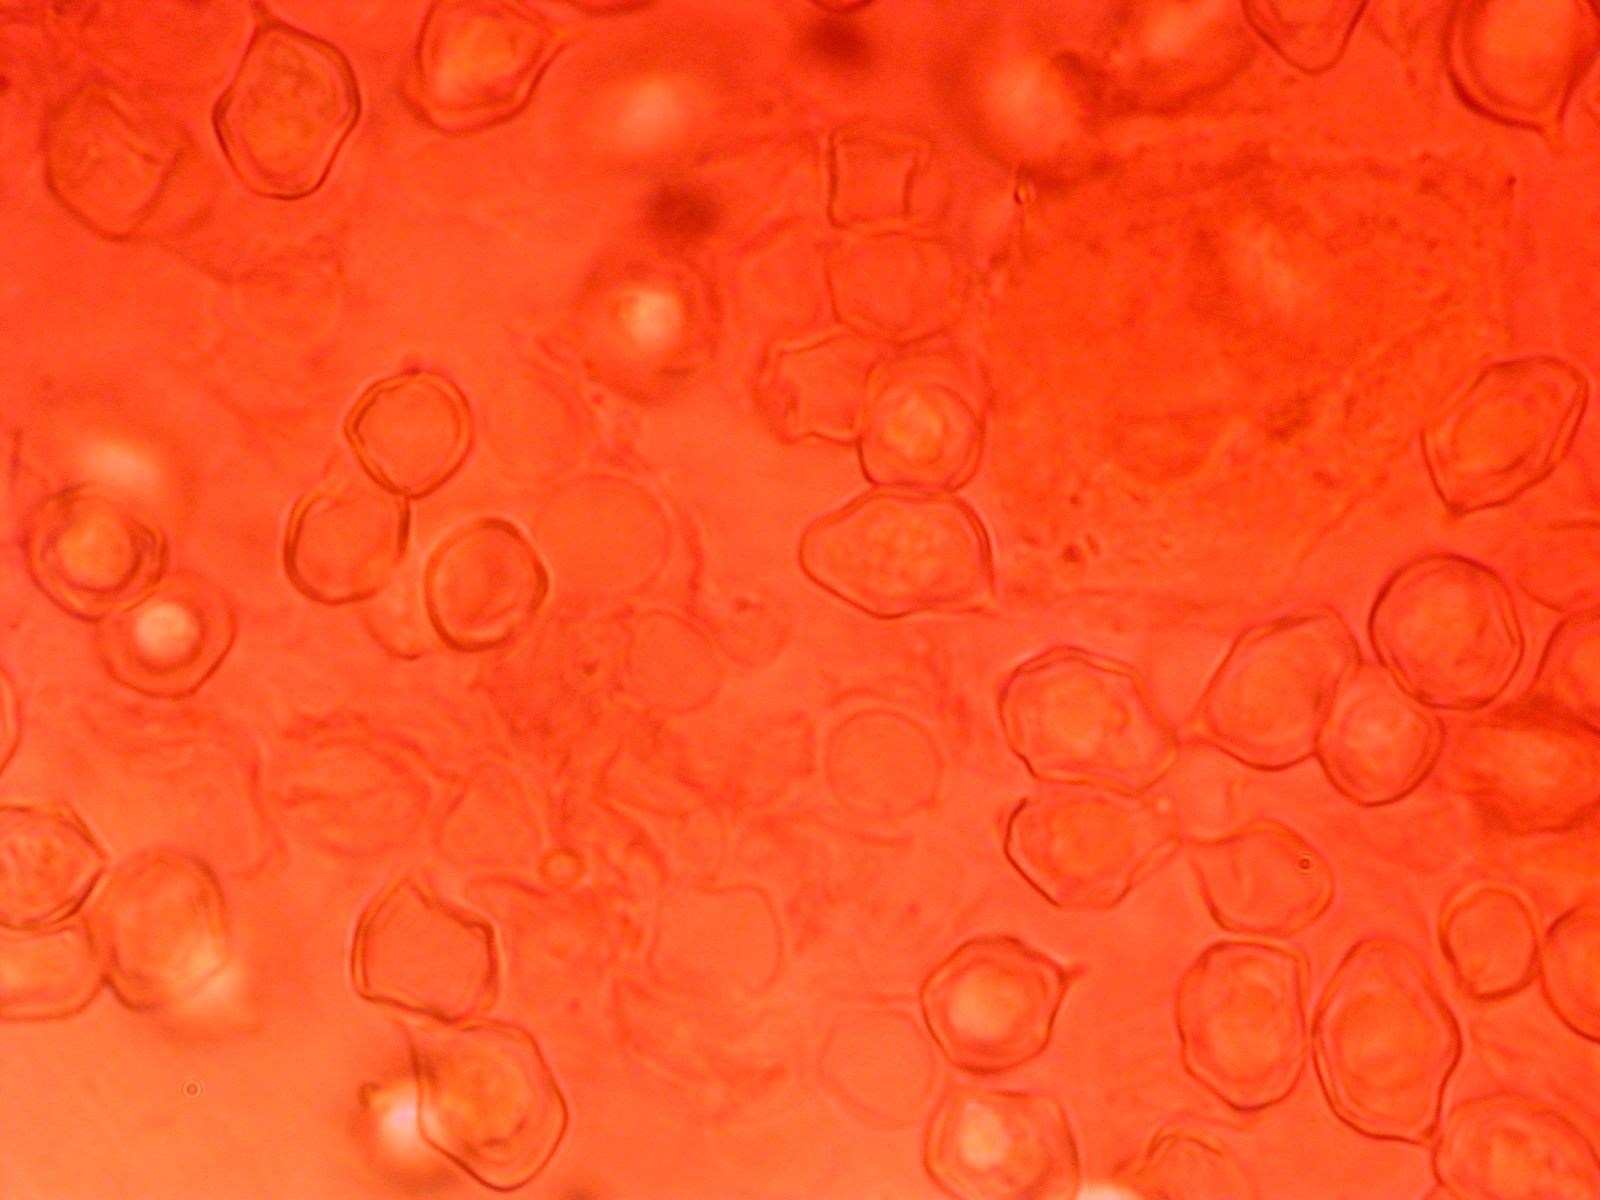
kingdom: Fungi
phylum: Basidiomycota
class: Agaricomycetes
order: Agaricales
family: Entolomataceae
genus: Entoloma
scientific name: Entoloma
